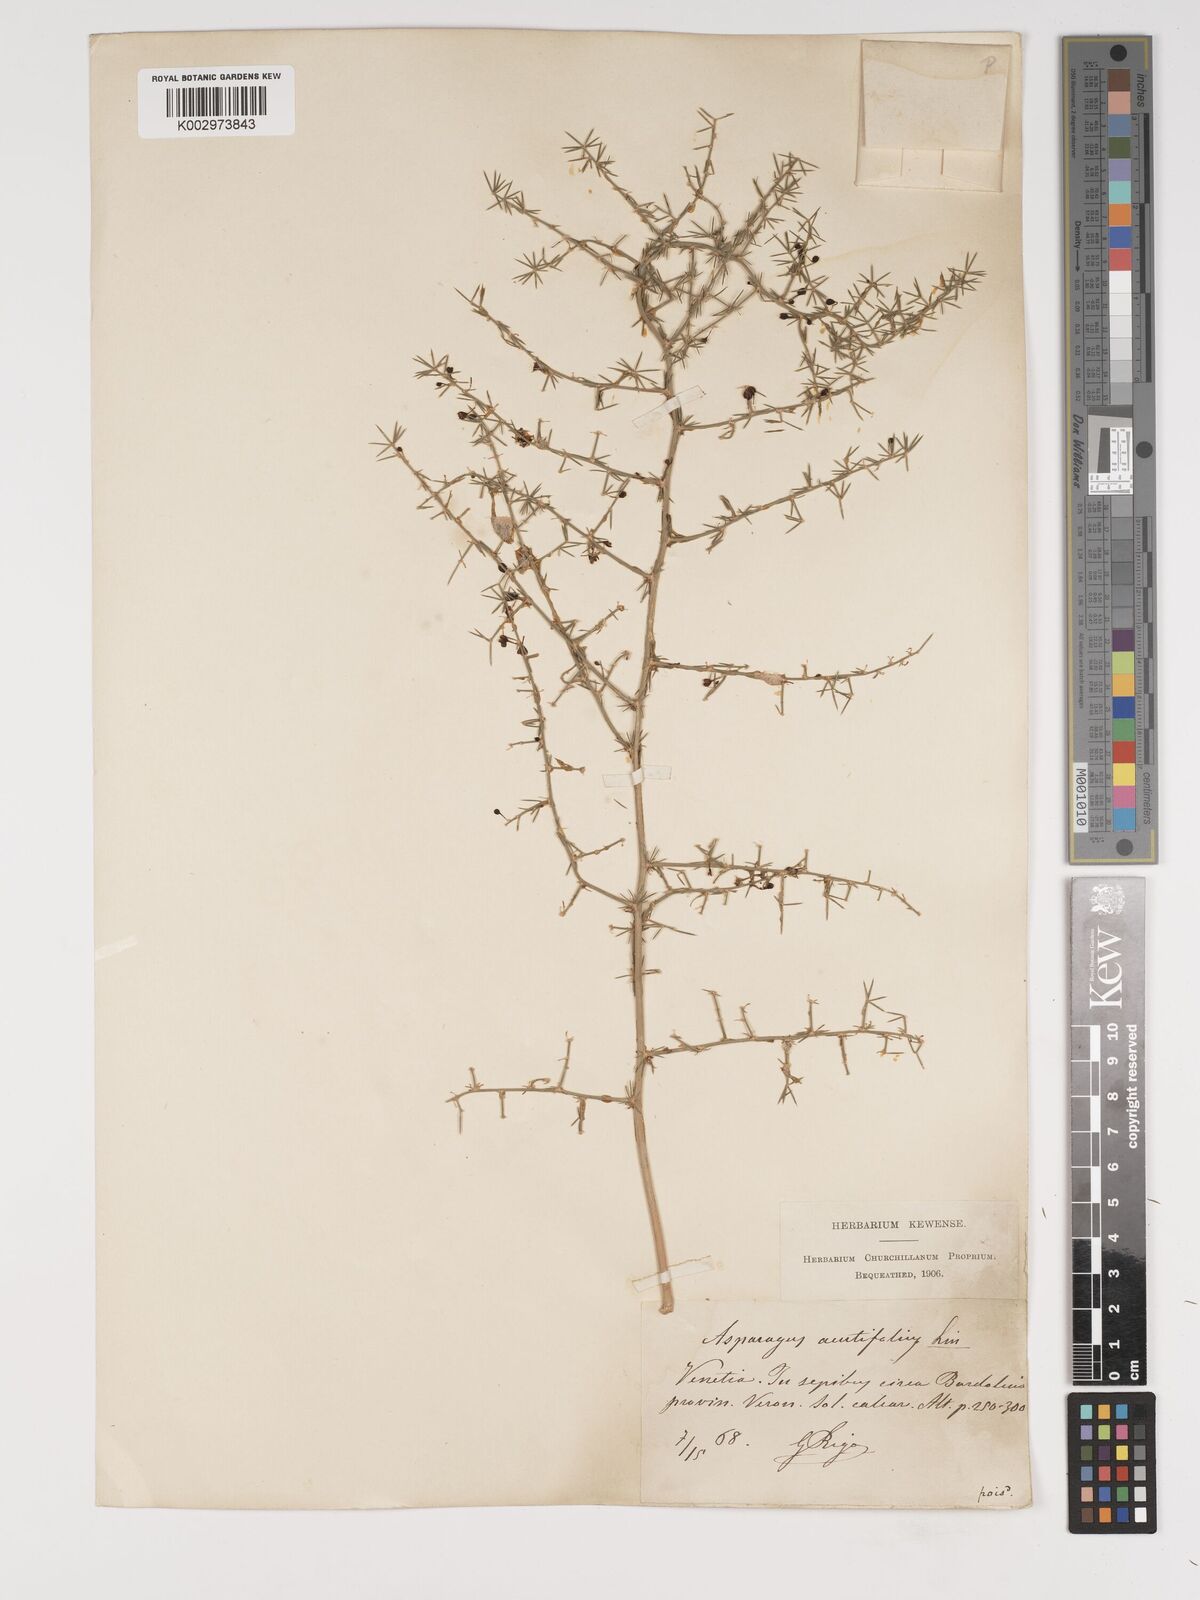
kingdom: Plantae
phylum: Tracheophyta
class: Liliopsida
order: Asparagales
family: Asparagaceae
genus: Asparagus
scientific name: Asparagus acutifolius
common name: Wild asparagus
